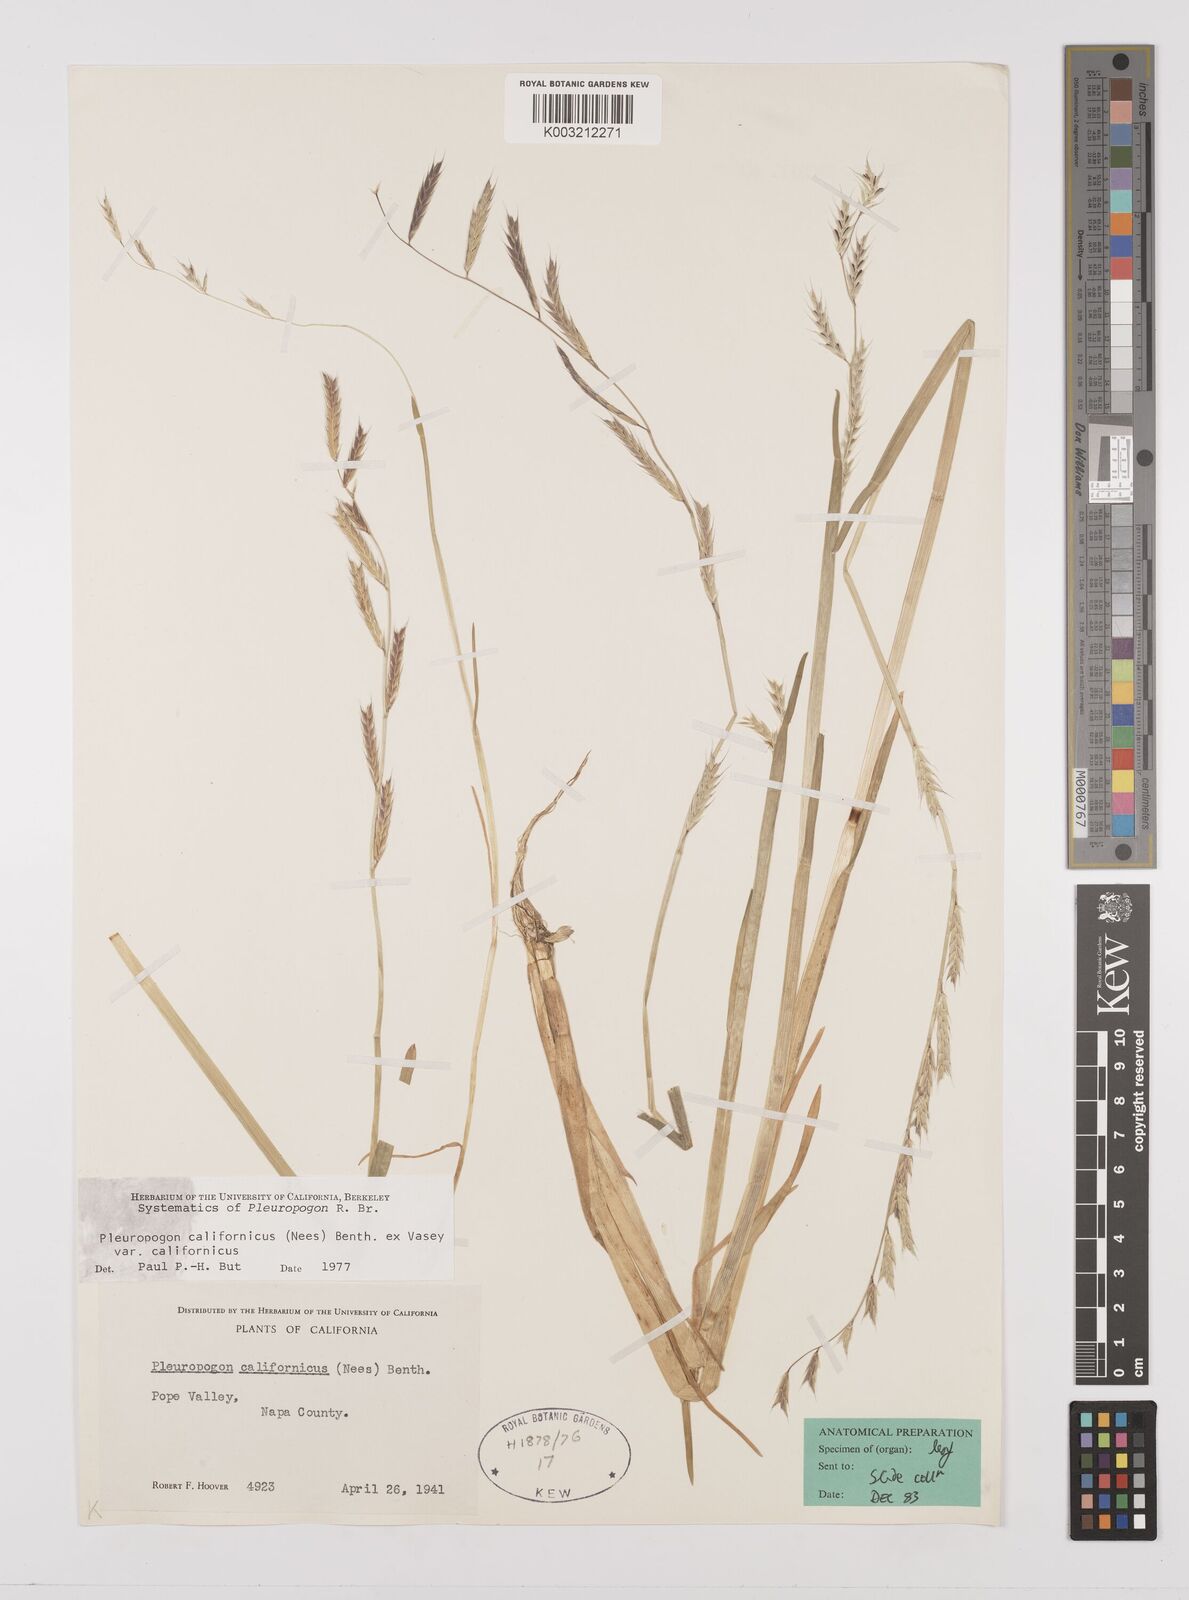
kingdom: Plantae
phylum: Tracheophyta
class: Liliopsida
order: Poales
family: Poaceae
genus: Pleuropogon
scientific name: Pleuropogon californicus
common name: California semaphore grass
